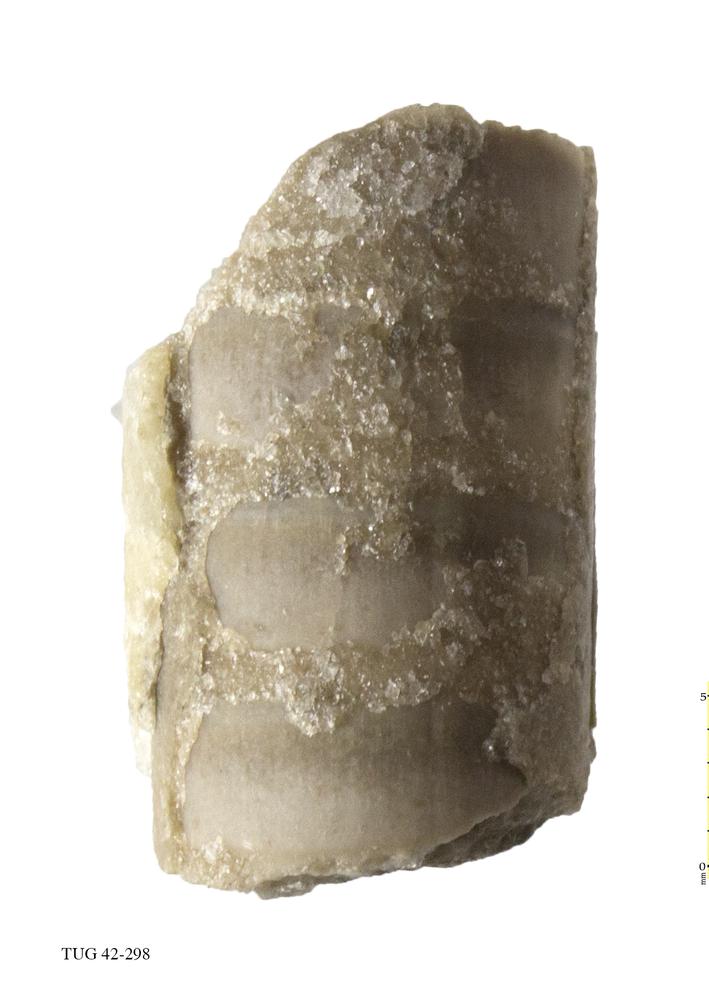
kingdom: Animalia
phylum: Mollusca
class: Cephalopoda
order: Orthocerida
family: Orthoceratidae
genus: Orthoceras
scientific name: Orthoceras regulare
